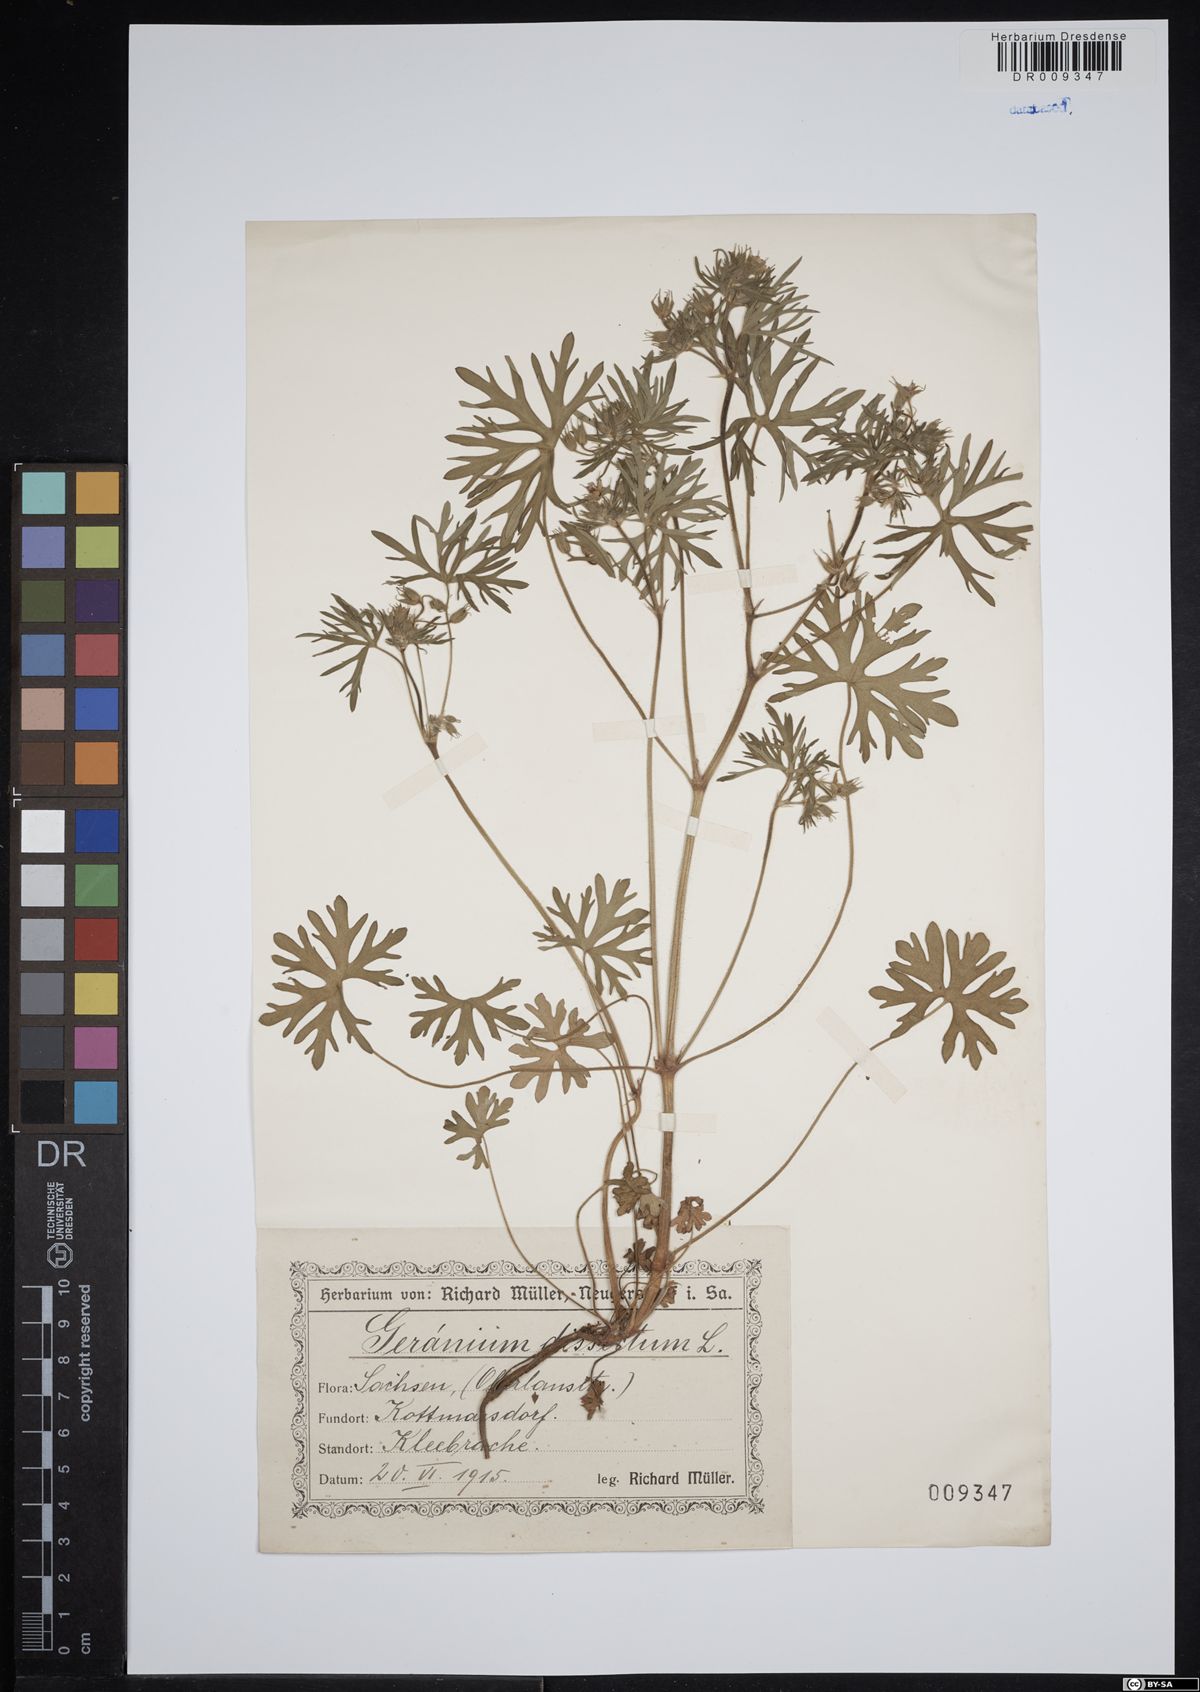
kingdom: Plantae
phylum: Tracheophyta
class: Magnoliopsida
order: Geraniales
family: Geraniaceae
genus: Geranium
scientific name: Geranium dissectum
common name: Cut-leaved crane's-bill
